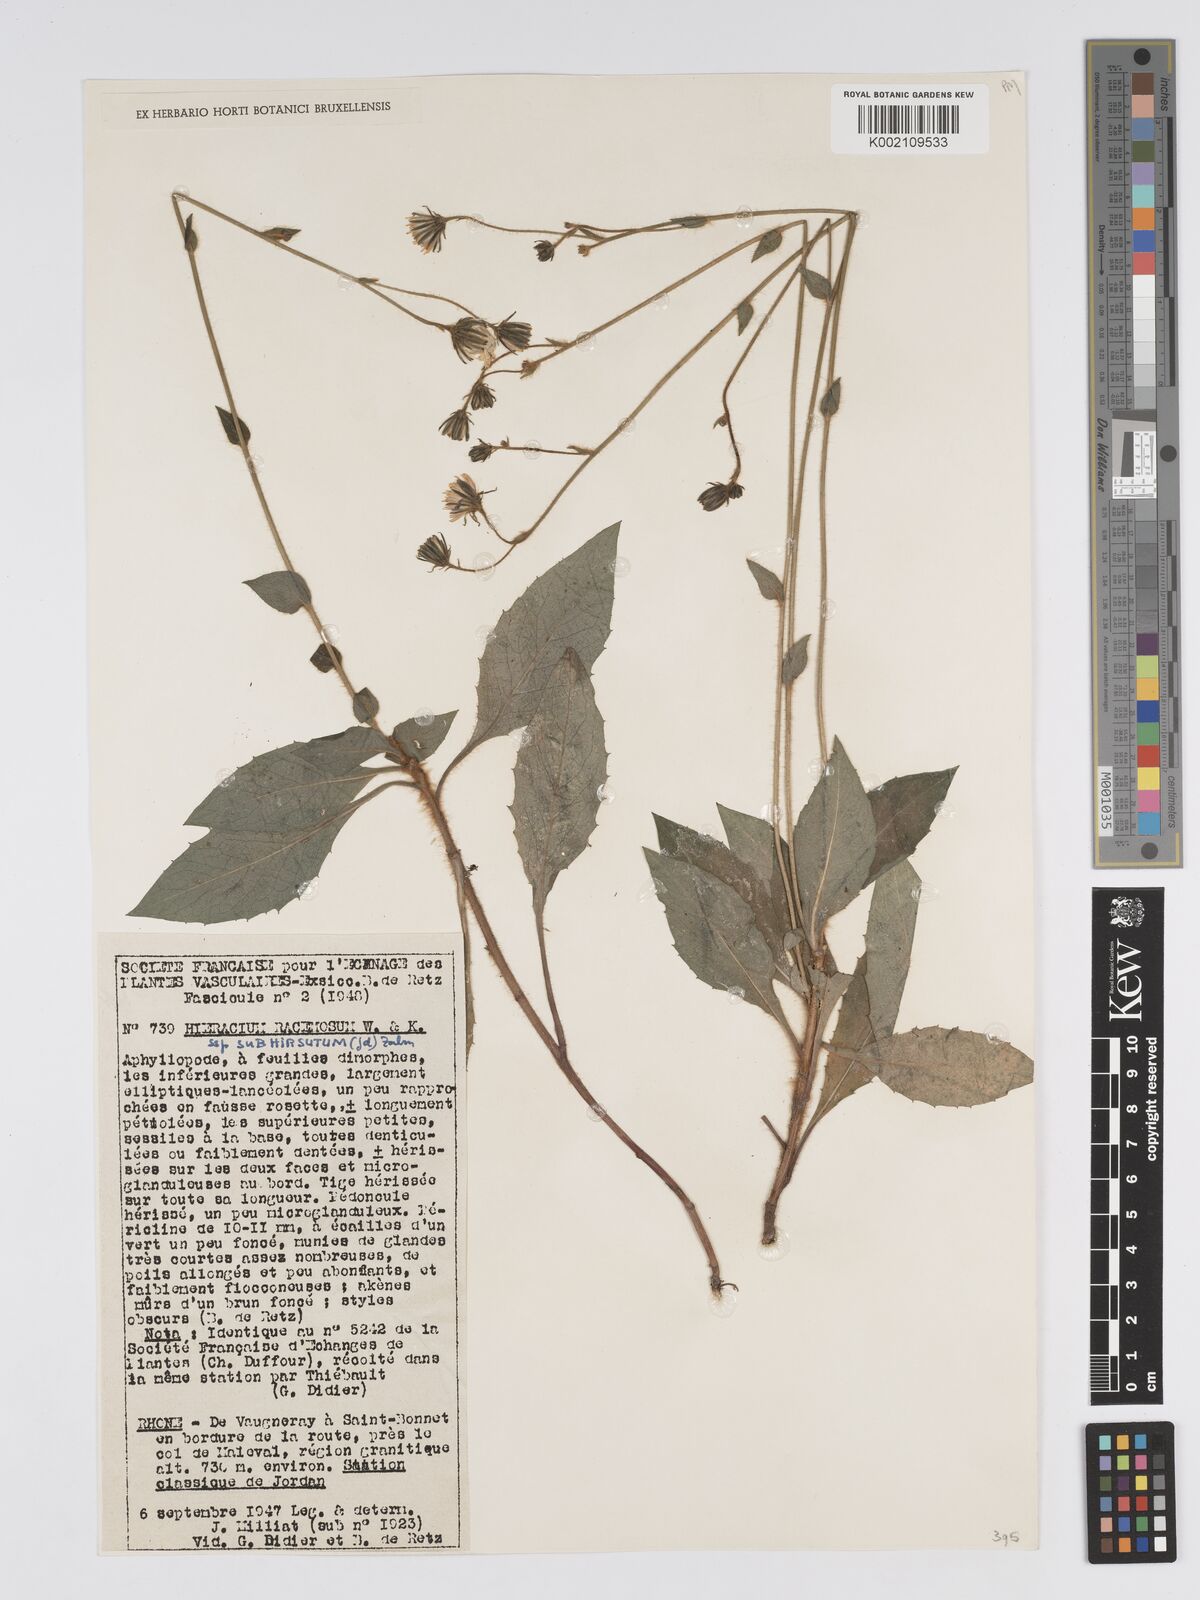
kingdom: Plantae
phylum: Tracheophyta
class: Magnoliopsida
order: Asterales
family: Asteraceae
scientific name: Asteraceae
